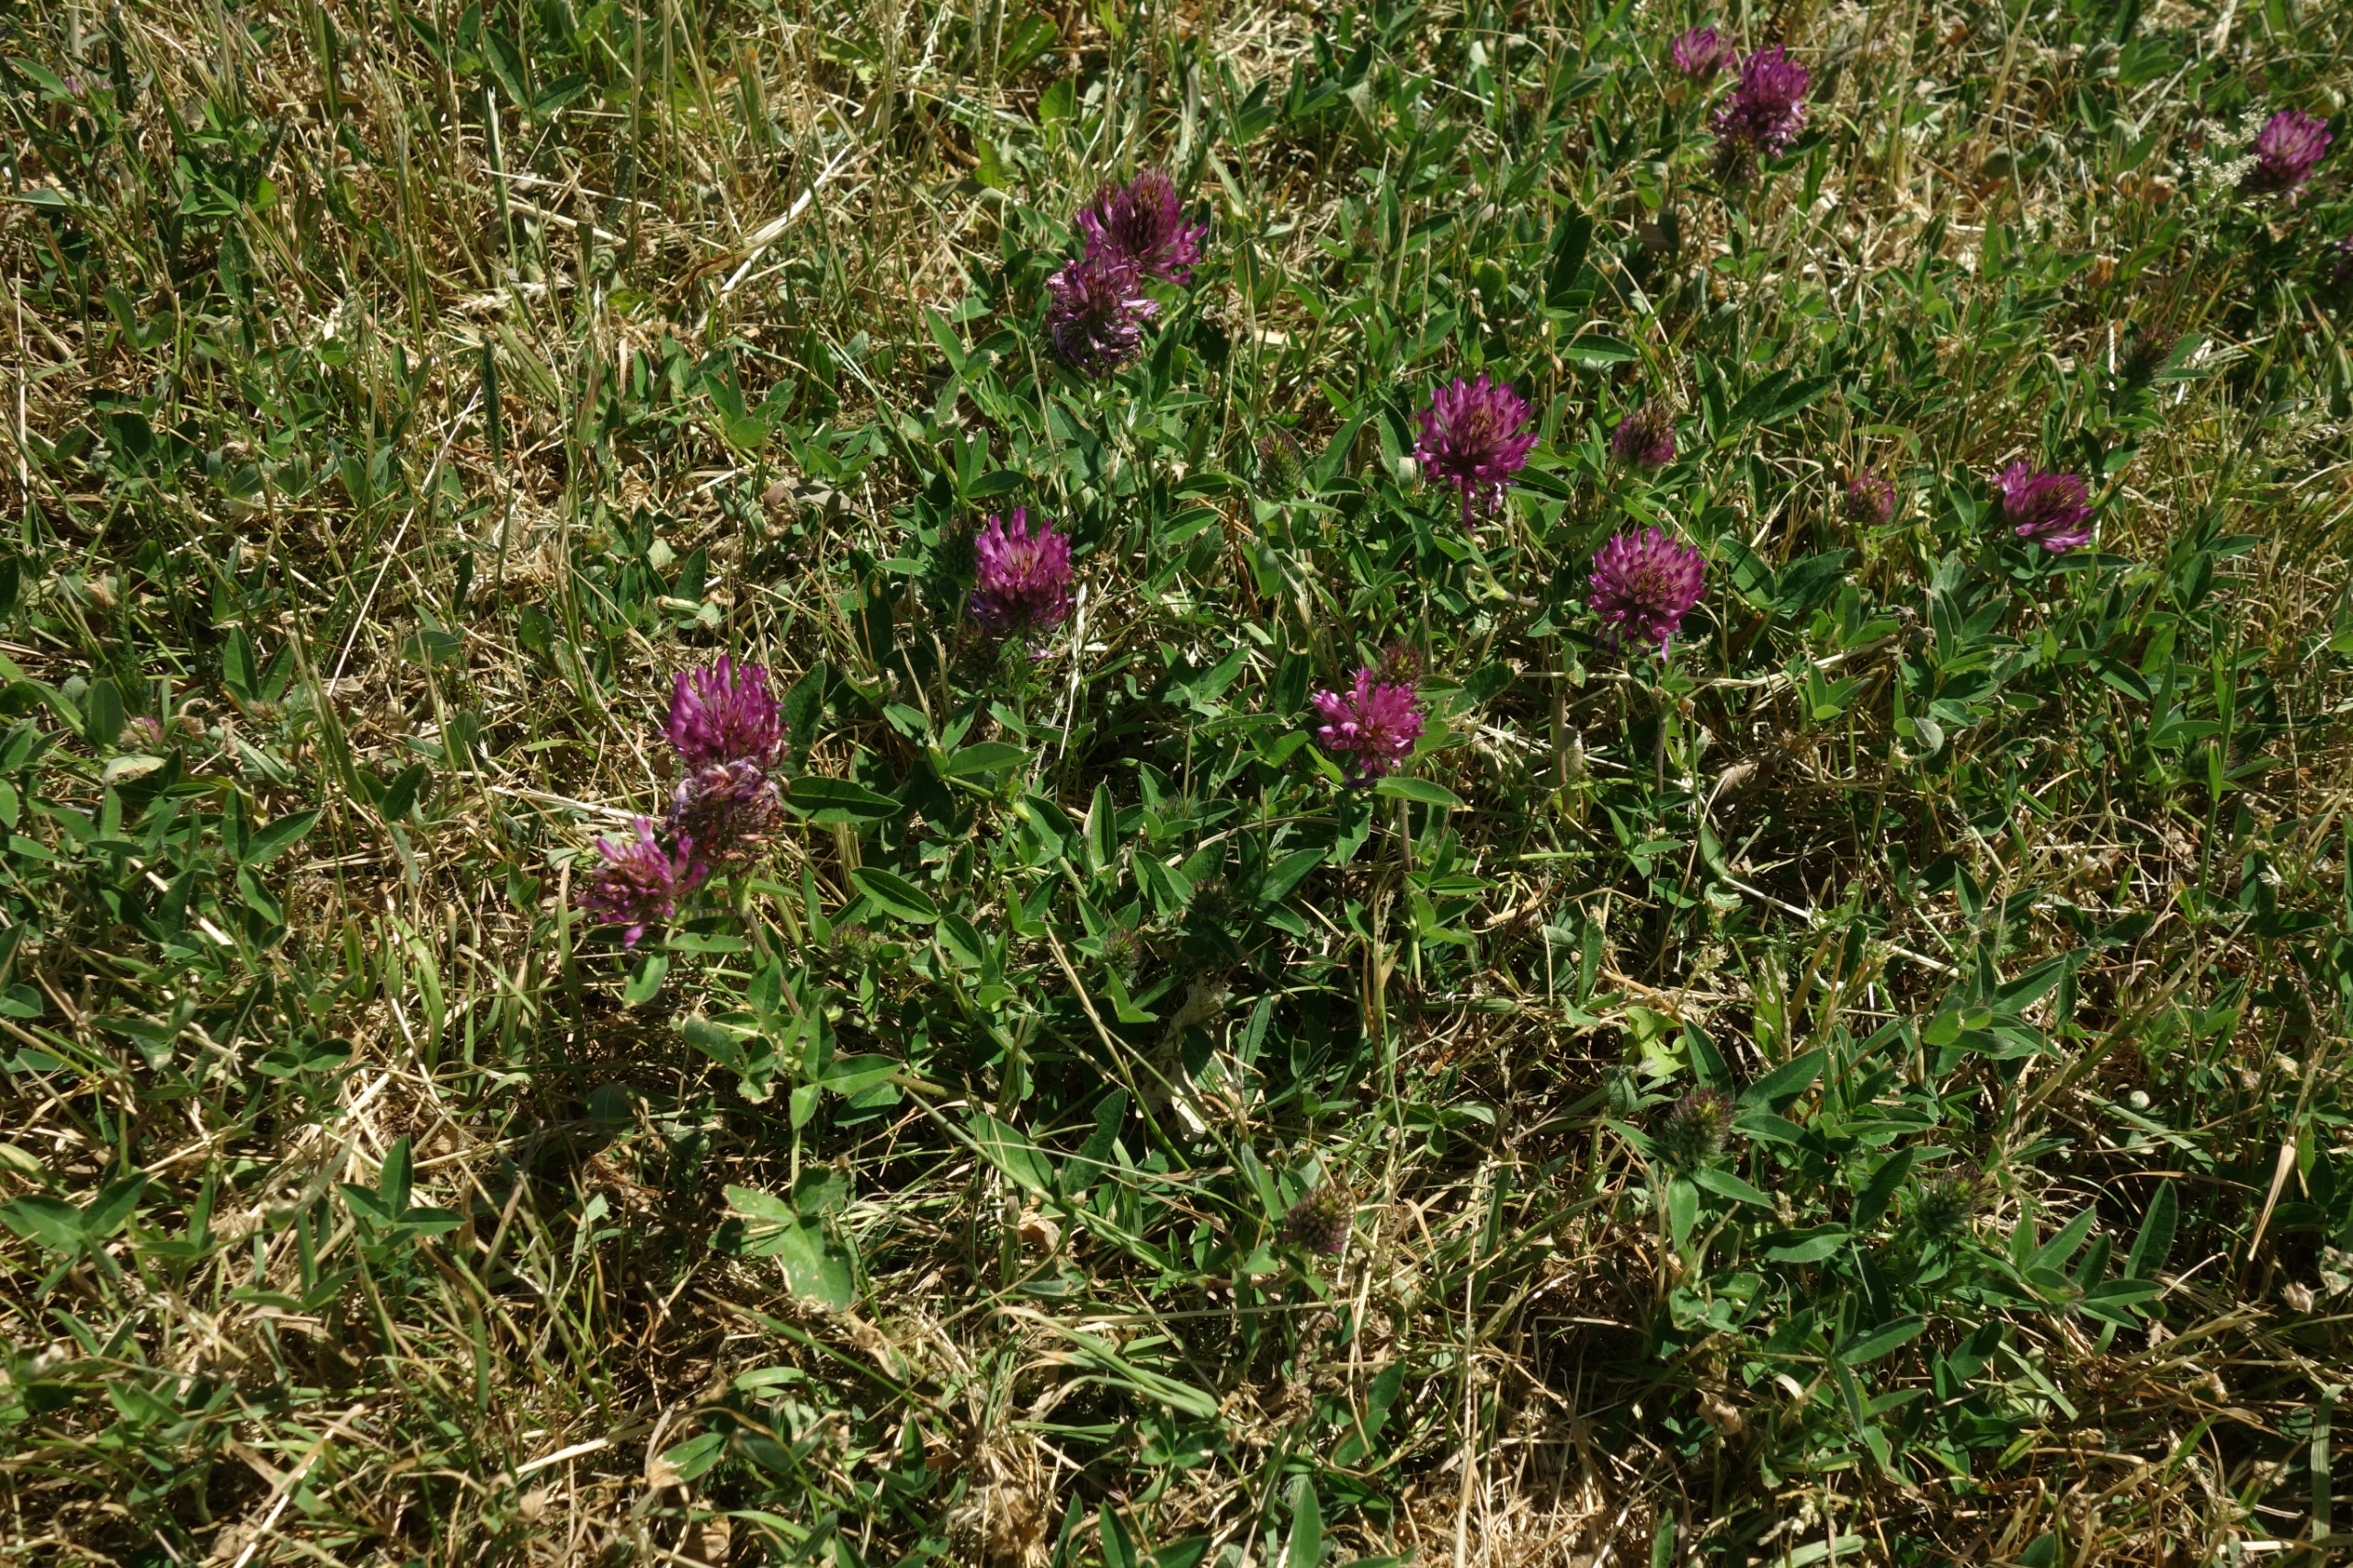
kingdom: Plantae
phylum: Tracheophyta
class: Magnoliopsida
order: Fabales
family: Fabaceae
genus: Trifolium
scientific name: Trifolium medium
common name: Bugtet kløver
